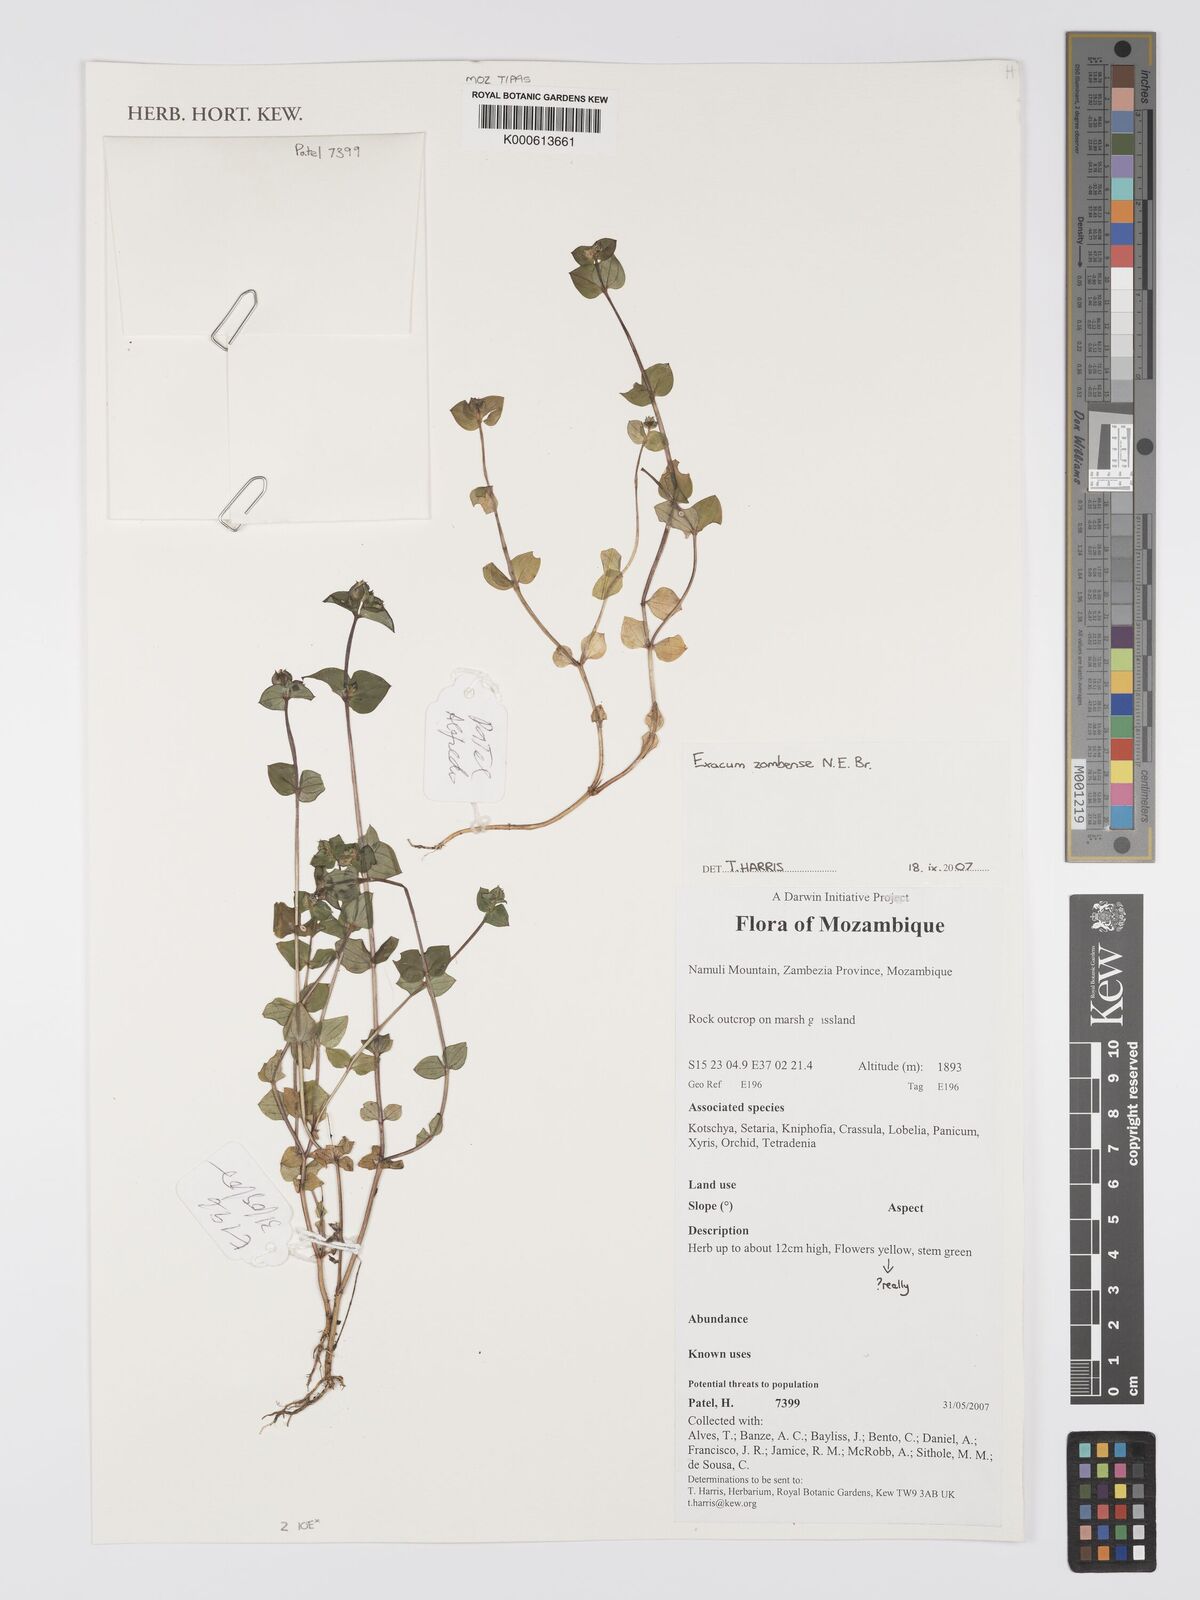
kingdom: Plantae
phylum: Tracheophyta
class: Magnoliopsida
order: Gentianales
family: Gentianaceae
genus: Exacum
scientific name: Exacum zombense
